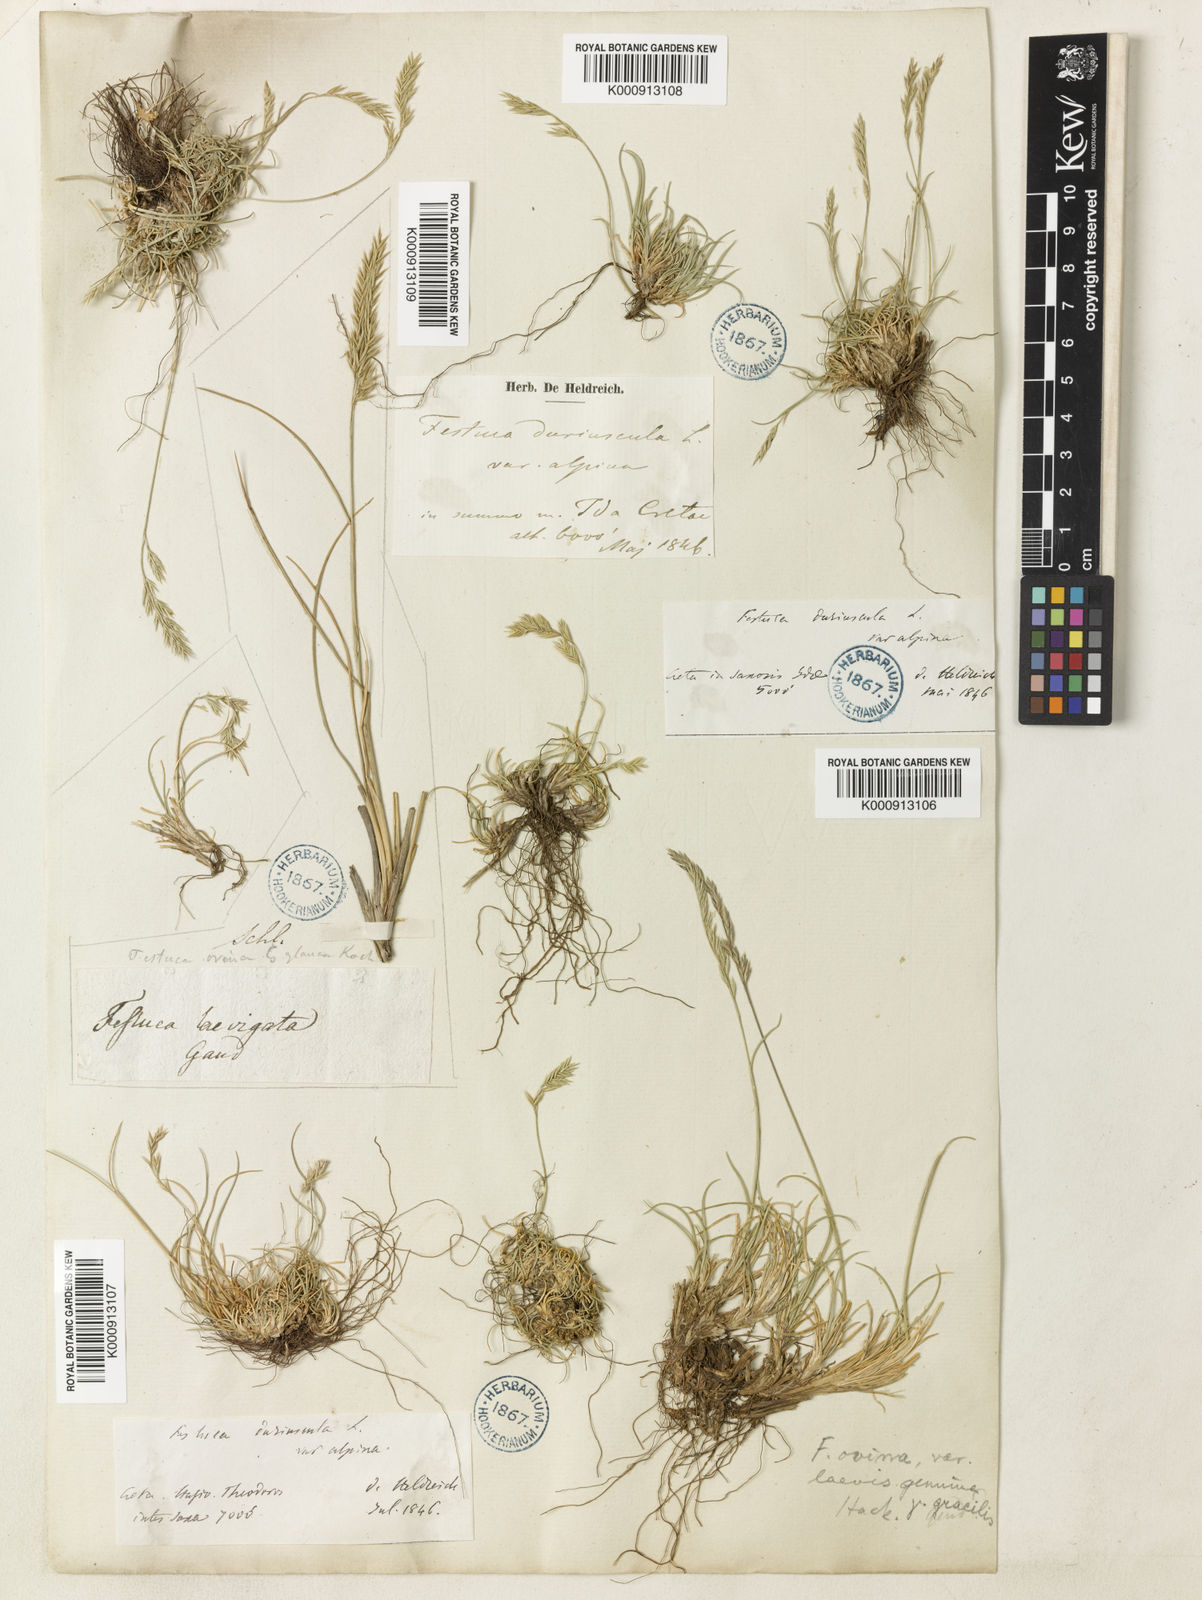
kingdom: Plantae
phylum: Tracheophyta
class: Liliopsida
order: Poales
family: Poaceae
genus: Festuca
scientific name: Festuca circummediterranea
